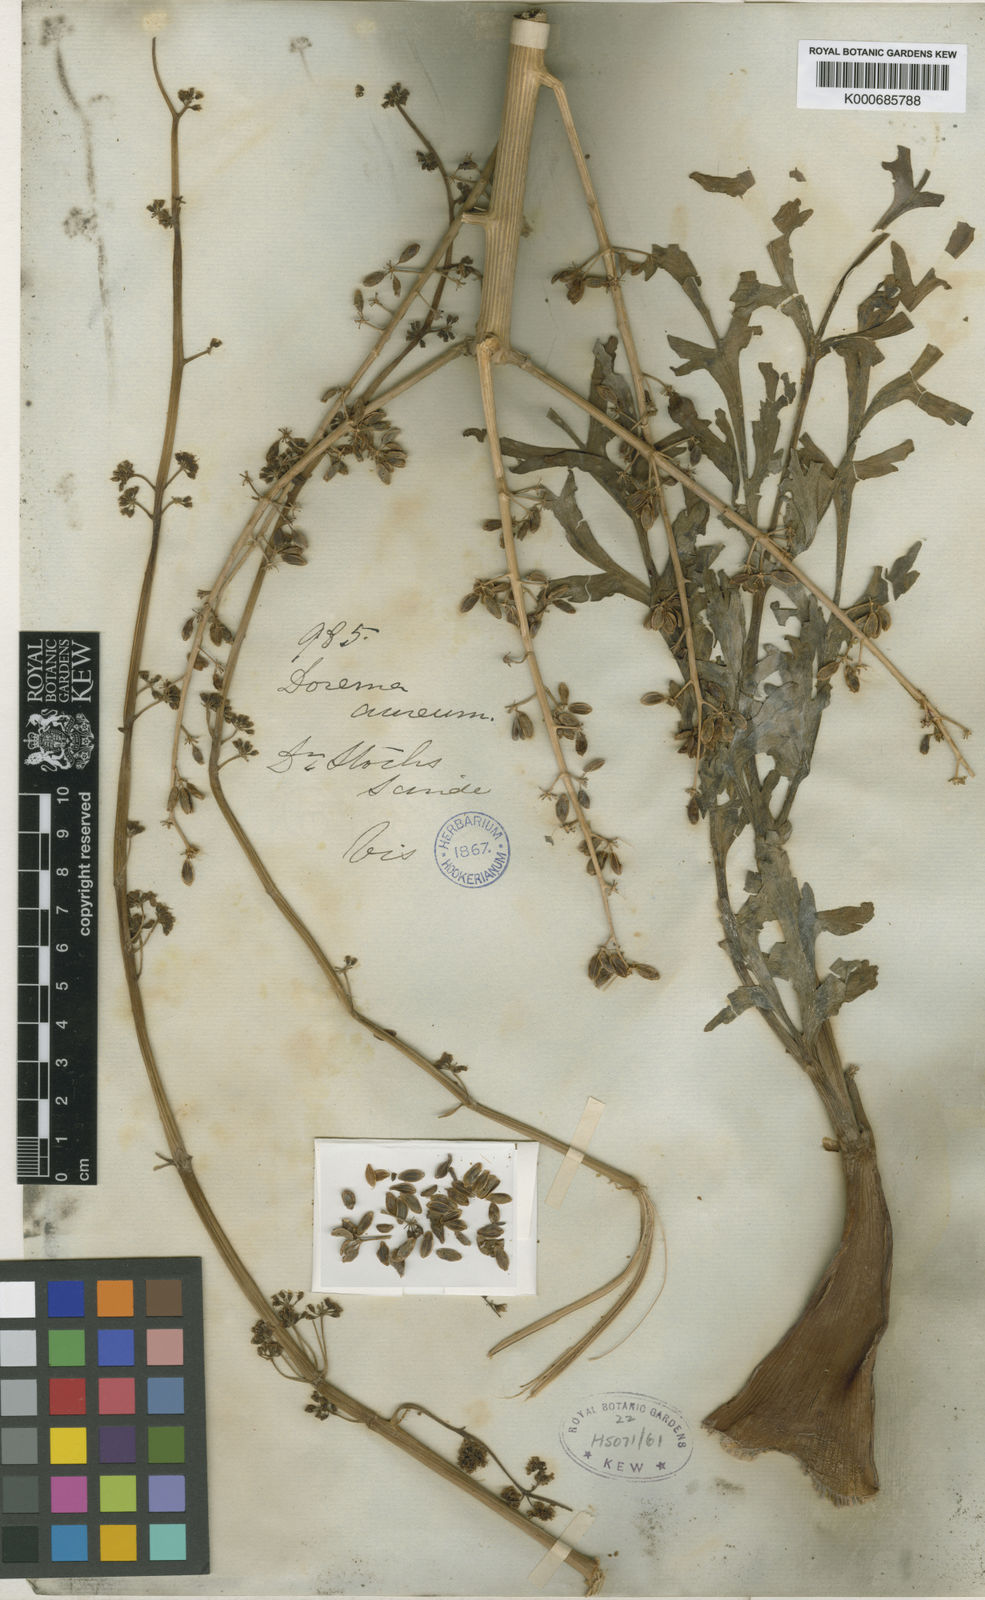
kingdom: Plantae
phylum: Tracheophyta
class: Magnoliopsida
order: Apiales
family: Apiaceae
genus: Ferula
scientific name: Ferula downieorum
